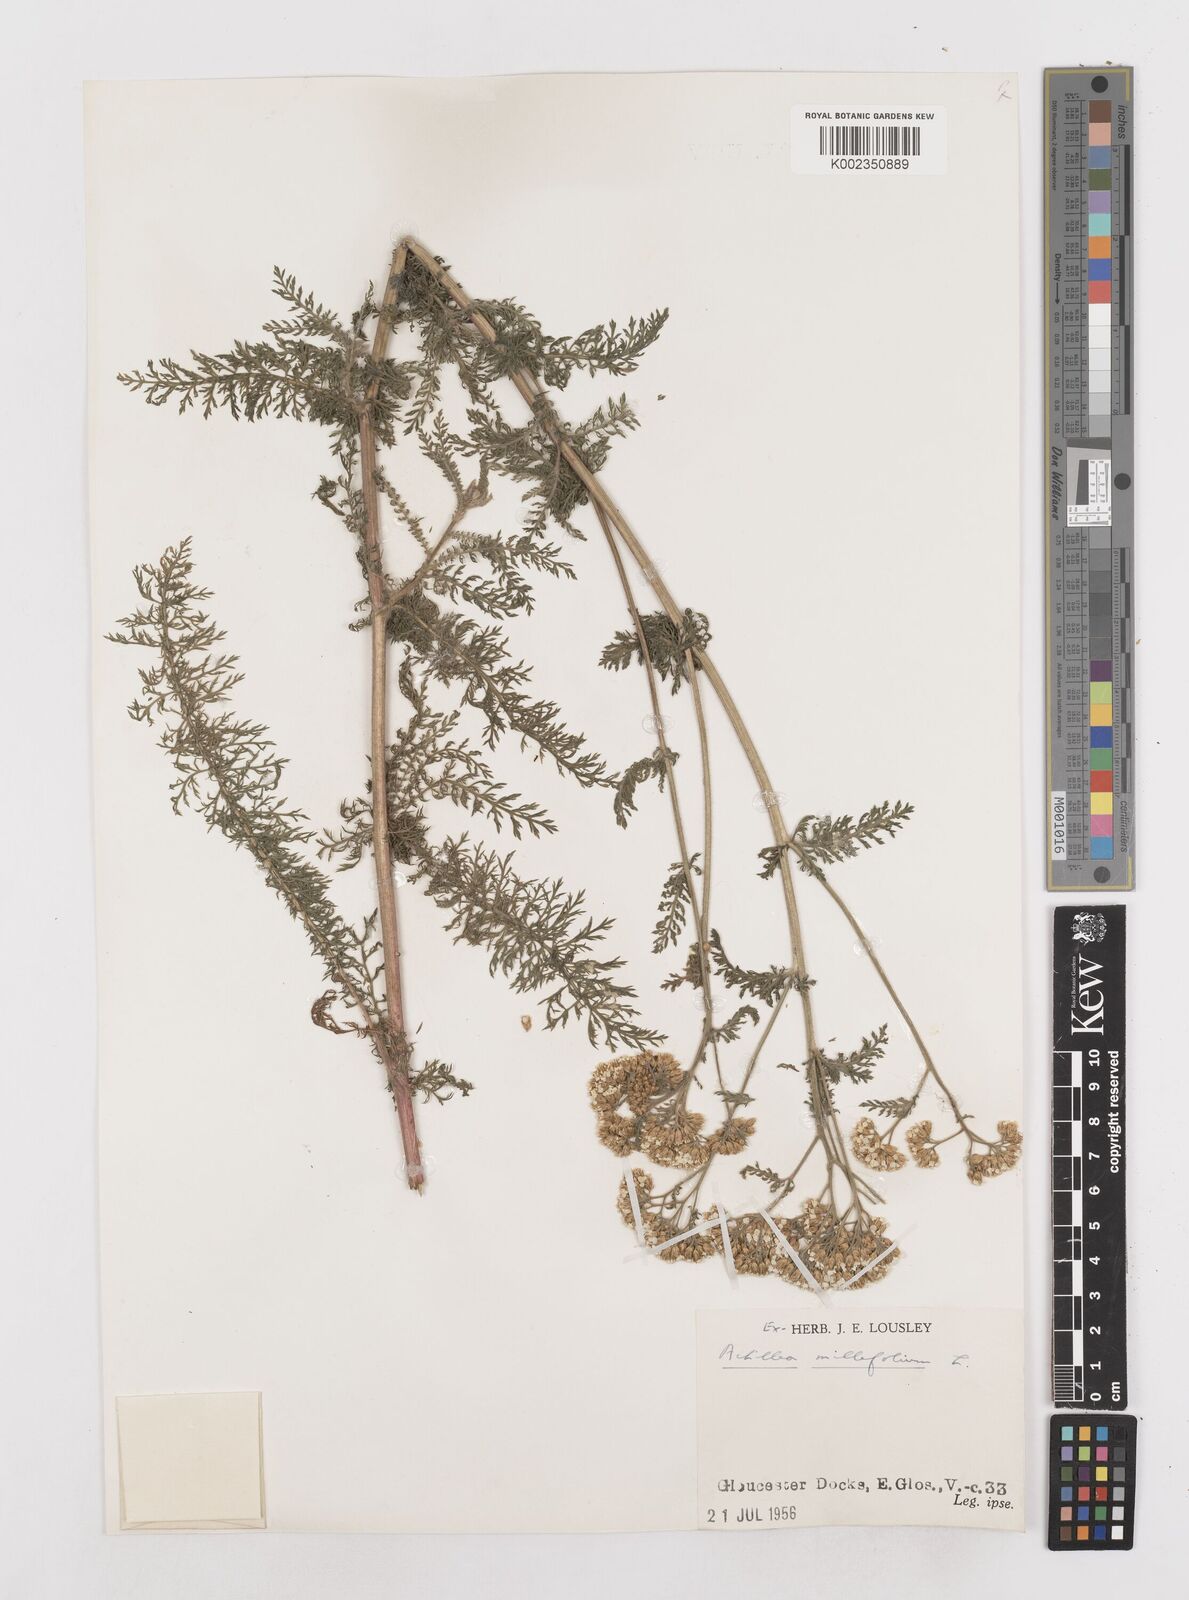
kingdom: Plantae
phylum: Tracheophyta
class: Magnoliopsida
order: Asterales
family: Asteraceae
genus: Achillea
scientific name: Achillea millefolium
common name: Yarrow
